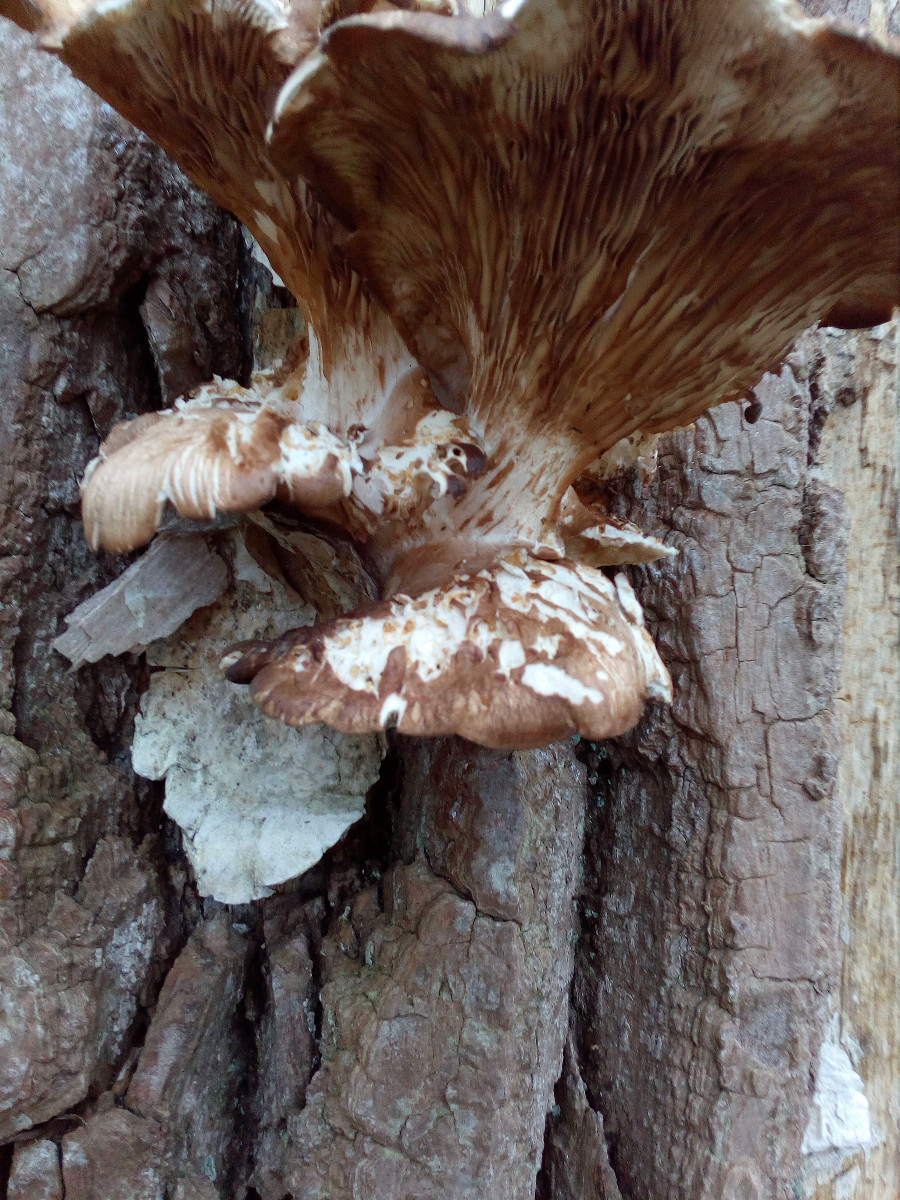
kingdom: Fungi
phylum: Basidiomycota
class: Agaricomycetes
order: Agaricales
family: Pleurotaceae
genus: Pleurotus
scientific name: Pleurotus ostreatus
